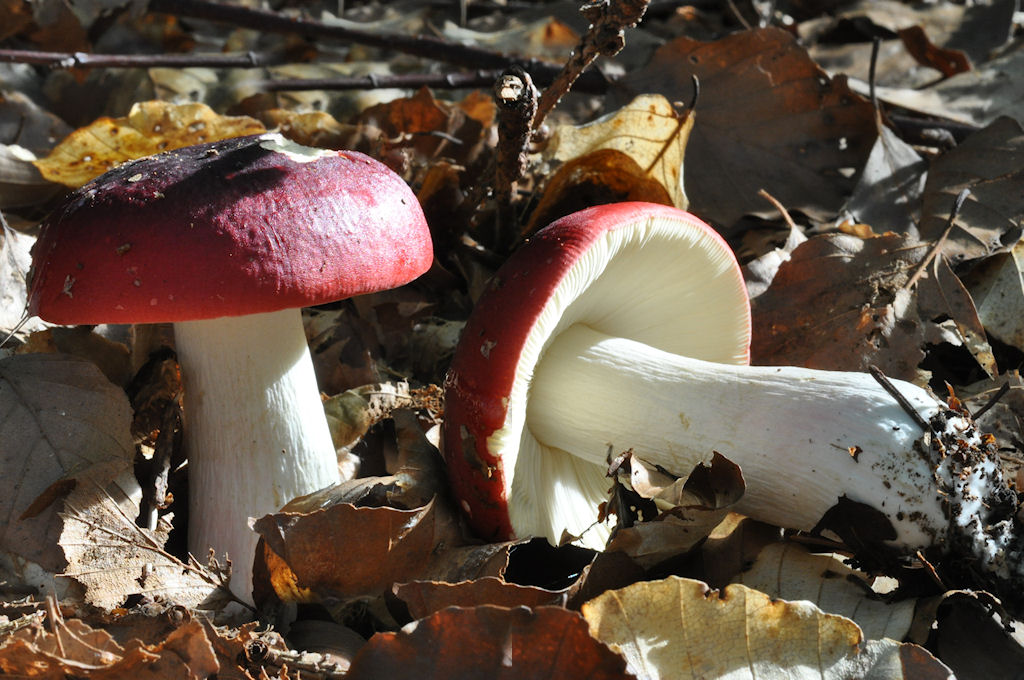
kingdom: Fungi
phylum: Basidiomycota
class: Agaricomycetes
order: Russulales
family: Russulaceae
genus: Russula
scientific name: Russula xerampelina
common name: hummer-skørhat
